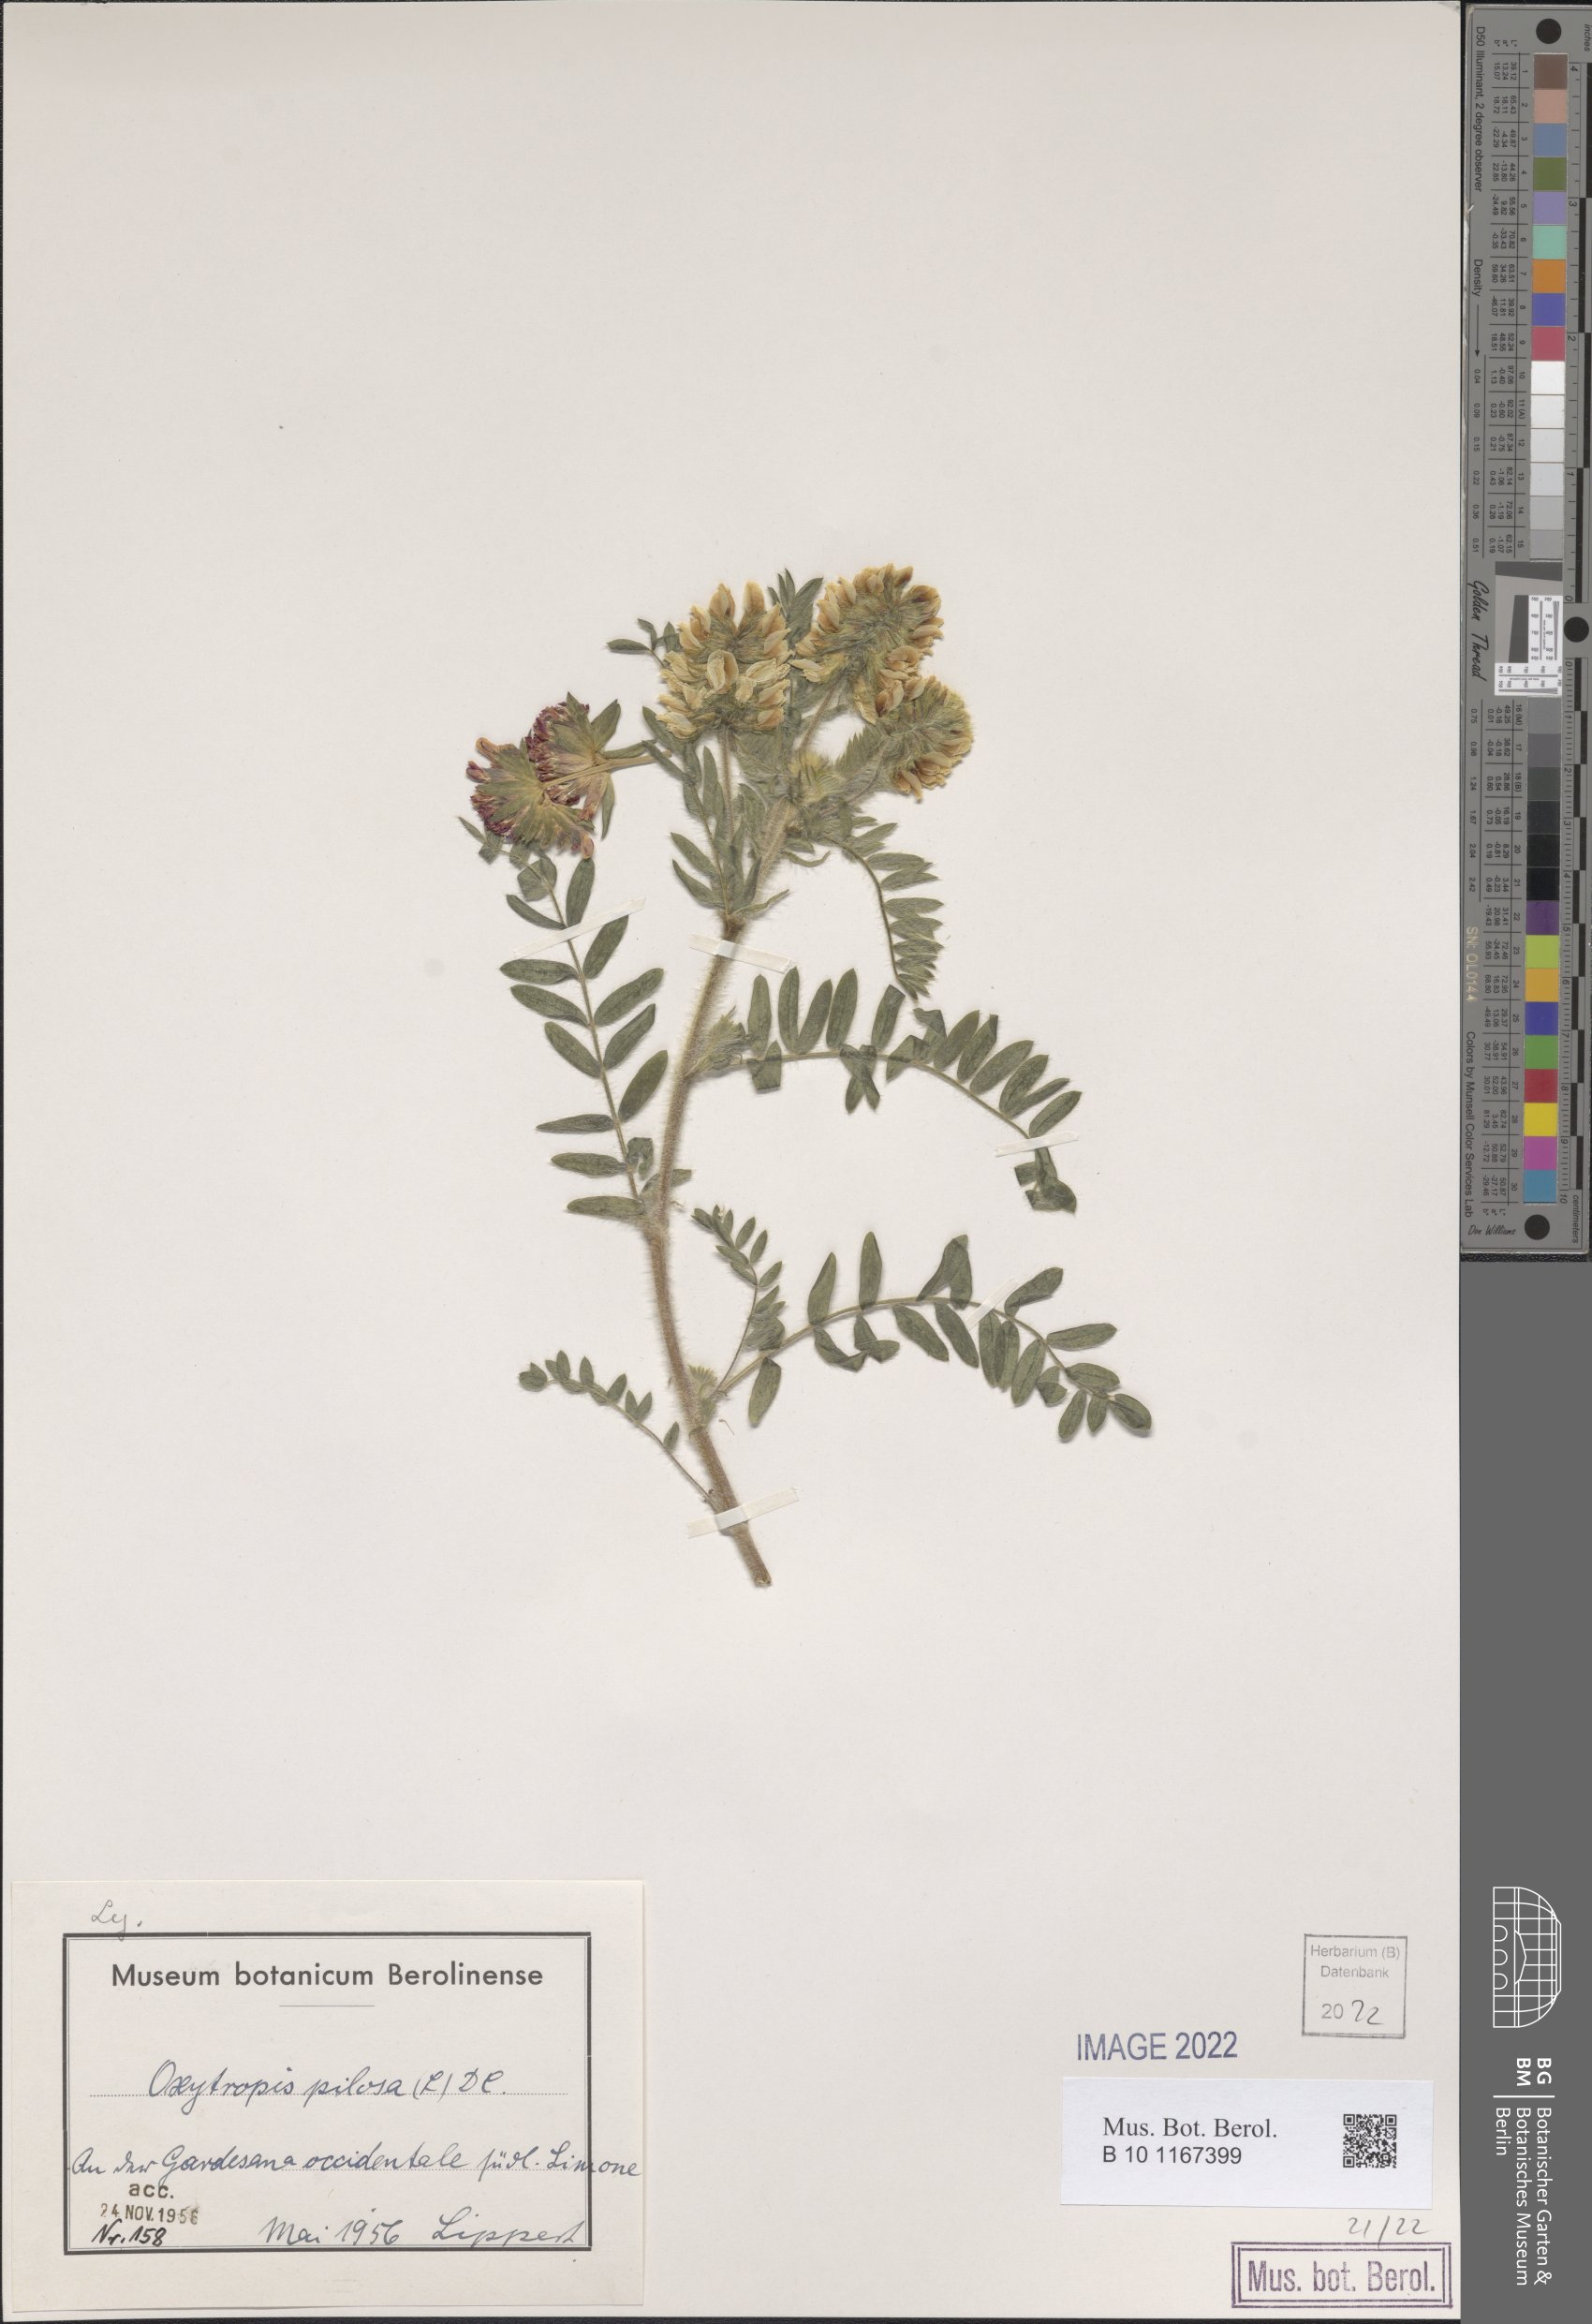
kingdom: Plantae
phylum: Tracheophyta
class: Magnoliopsida
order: Fabales
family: Fabaceae
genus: Oxytropis
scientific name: Oxytropis pilosa
